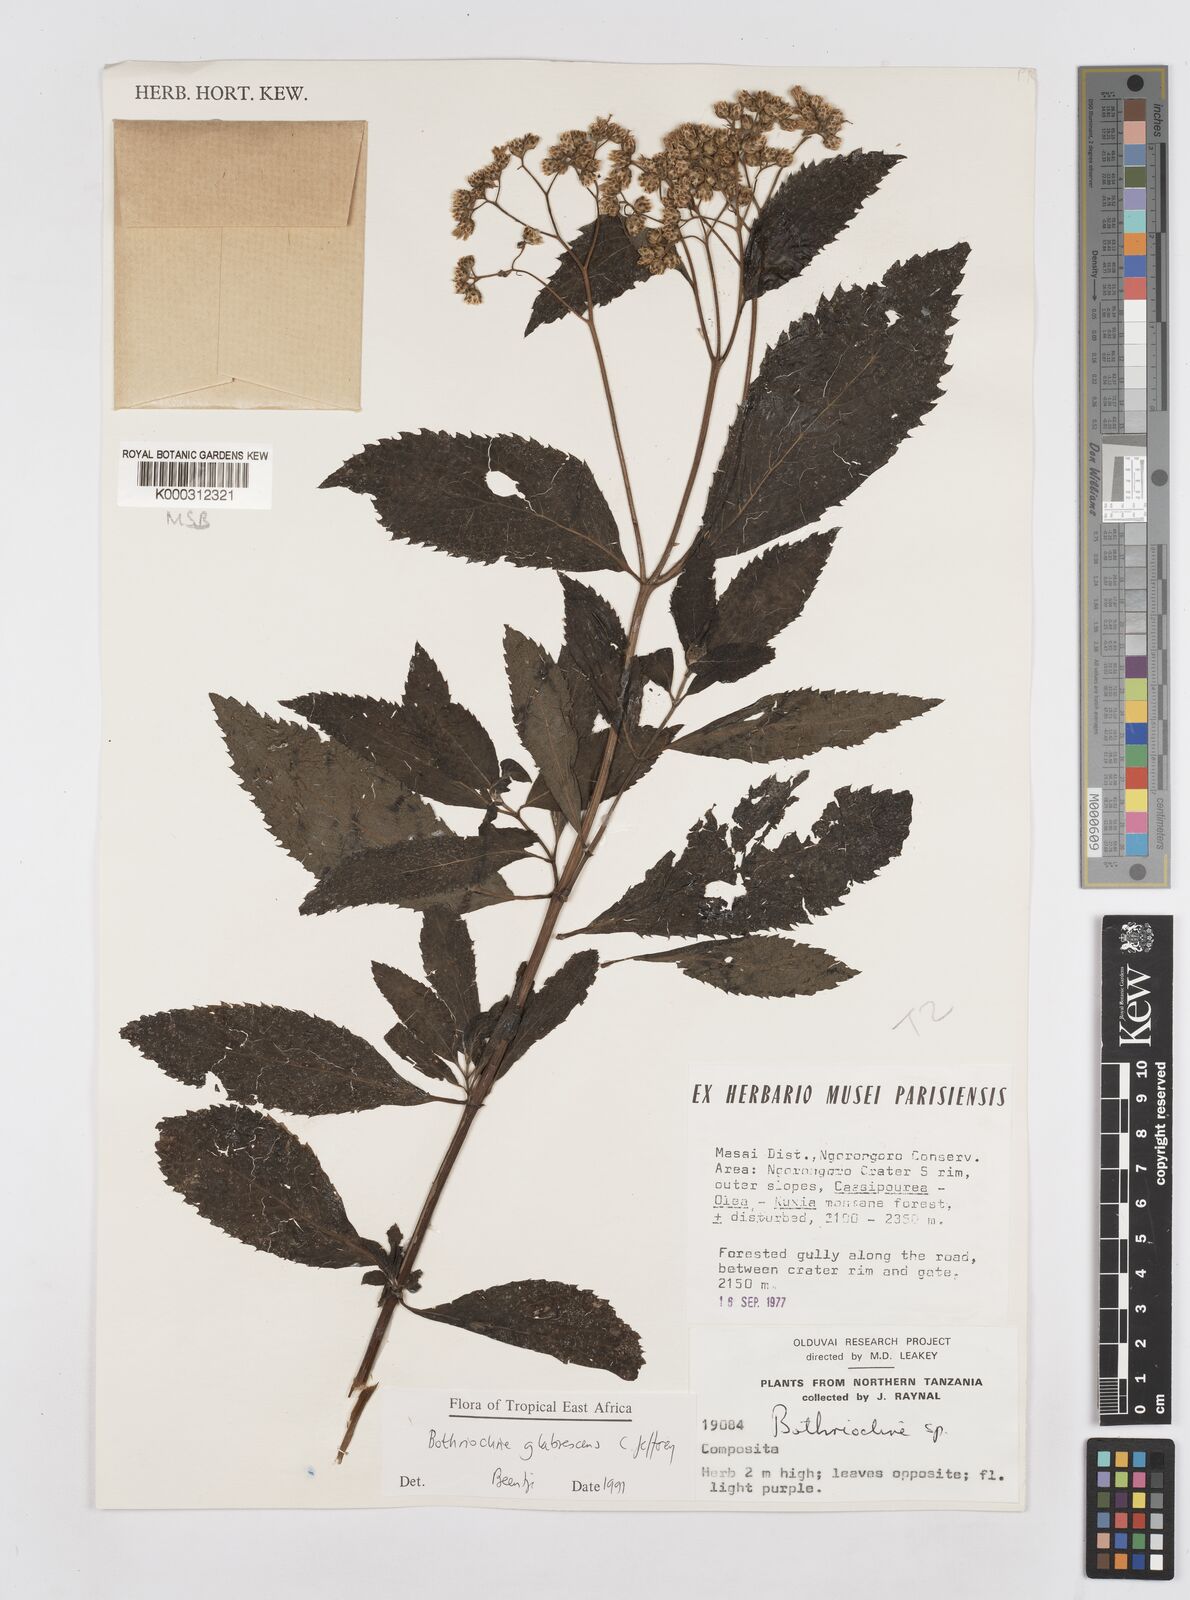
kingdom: Plantae
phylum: Tracheophyta
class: Magnoliopsida
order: Asterales
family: Asteraceae
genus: Bothriocline
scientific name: Bothriocline glabrescens
